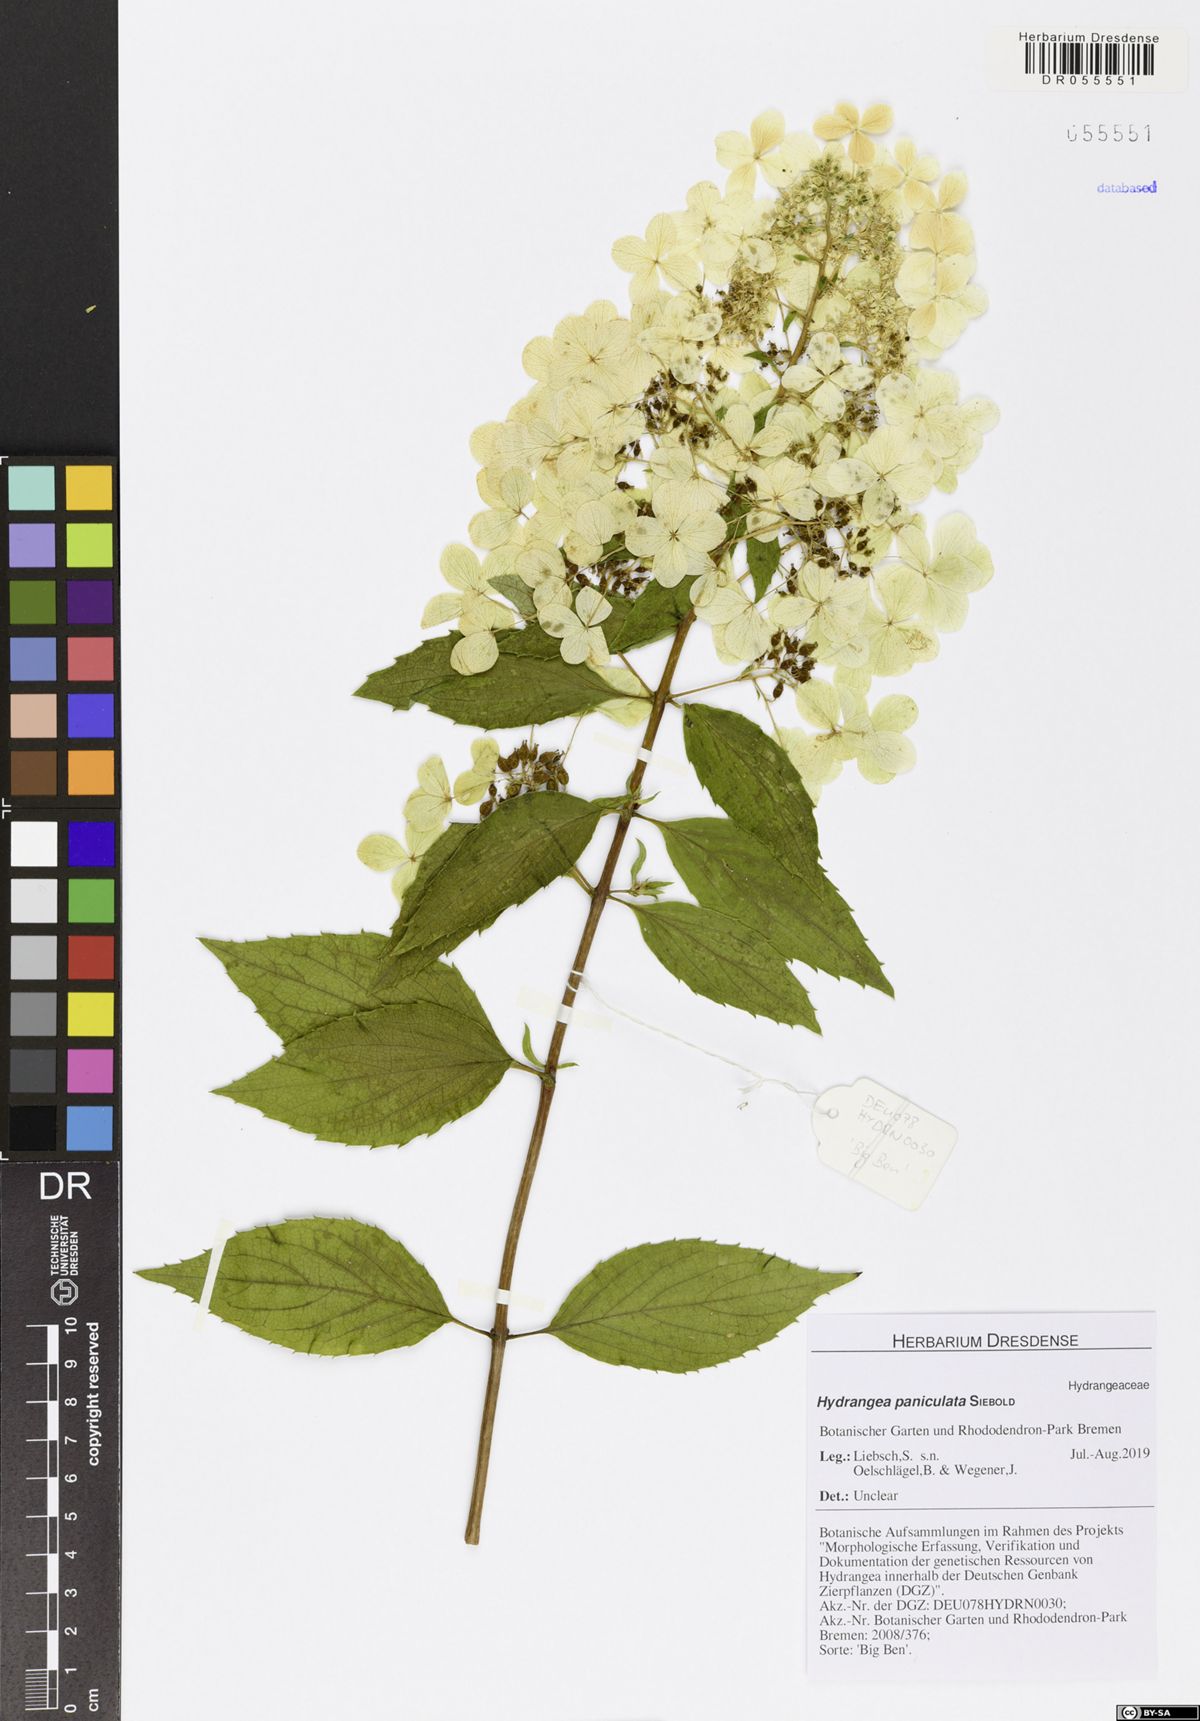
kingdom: Plantae
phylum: Tracheophyta
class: Magnoliopsida
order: Cornales
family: Hydrangeaceae
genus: Hydrangea
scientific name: Hydrangea paniculata
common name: Panicled hydrangea
